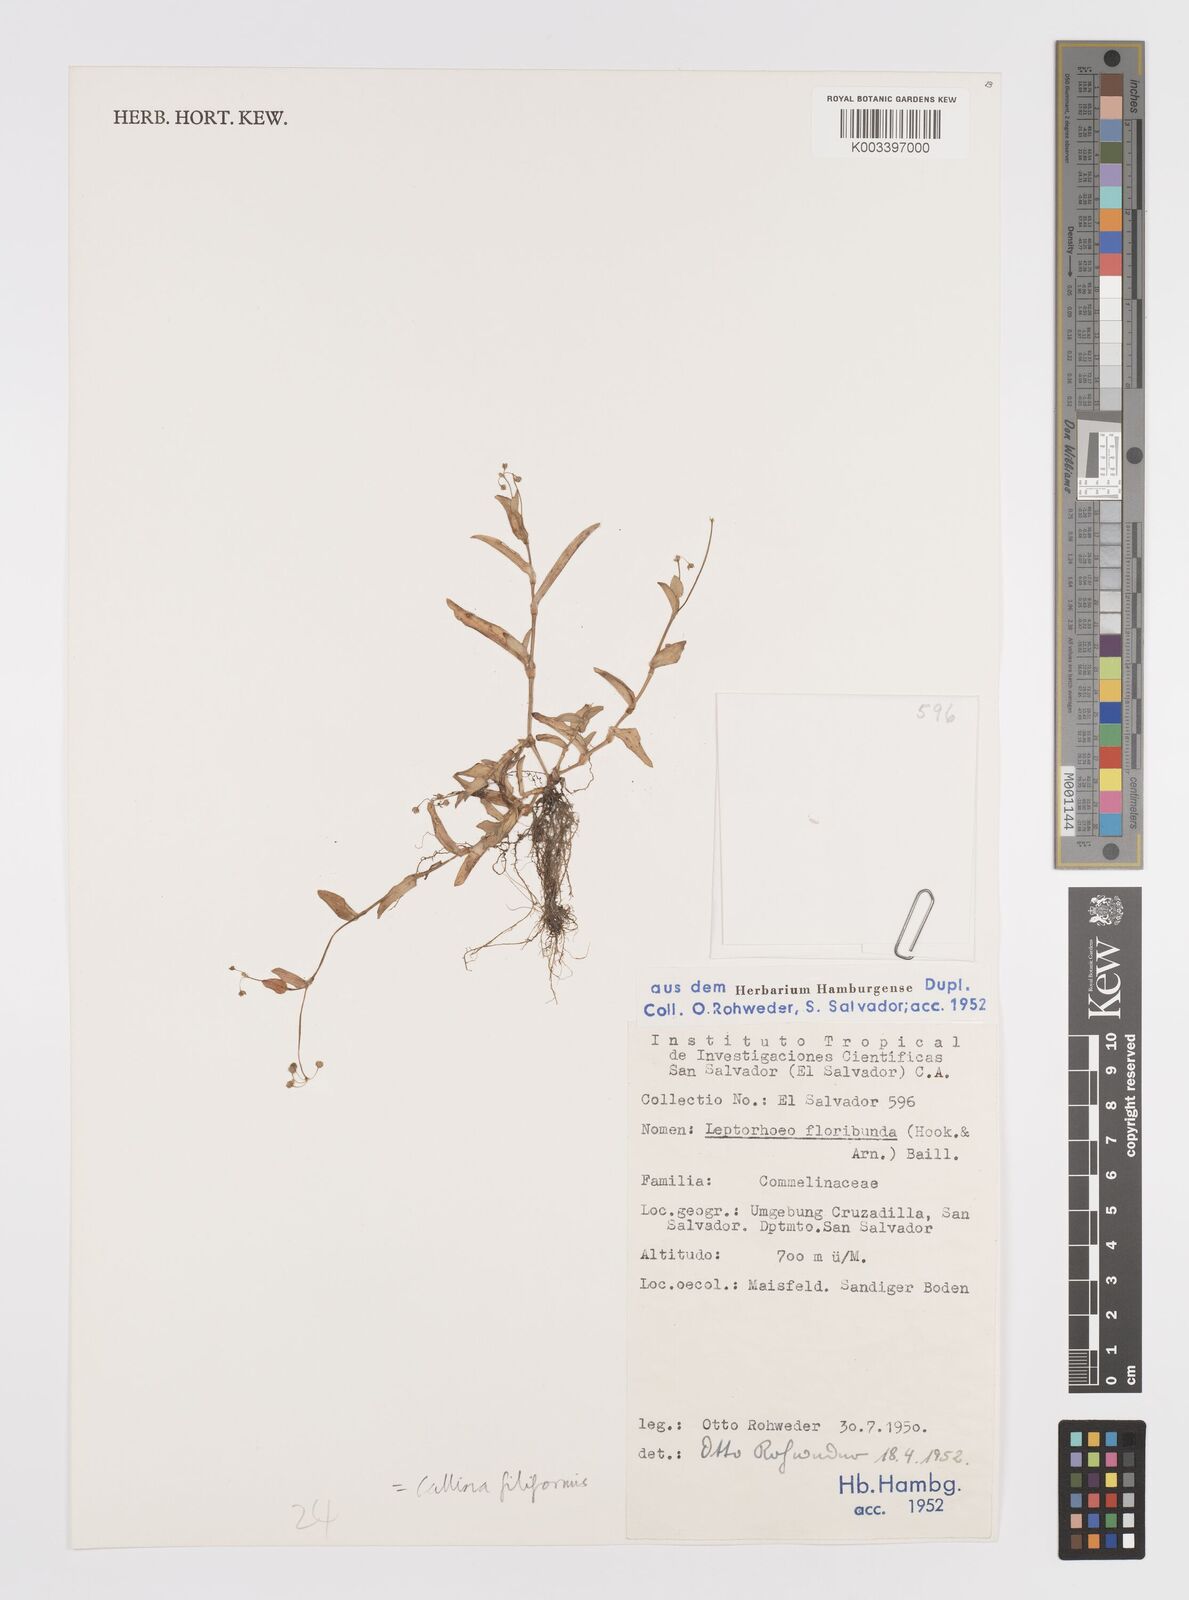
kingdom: Plantae
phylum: Tracheophyta
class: Liliopsida
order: Commelinales
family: Commelinaceae
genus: Callisia
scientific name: Callisia filiformis
